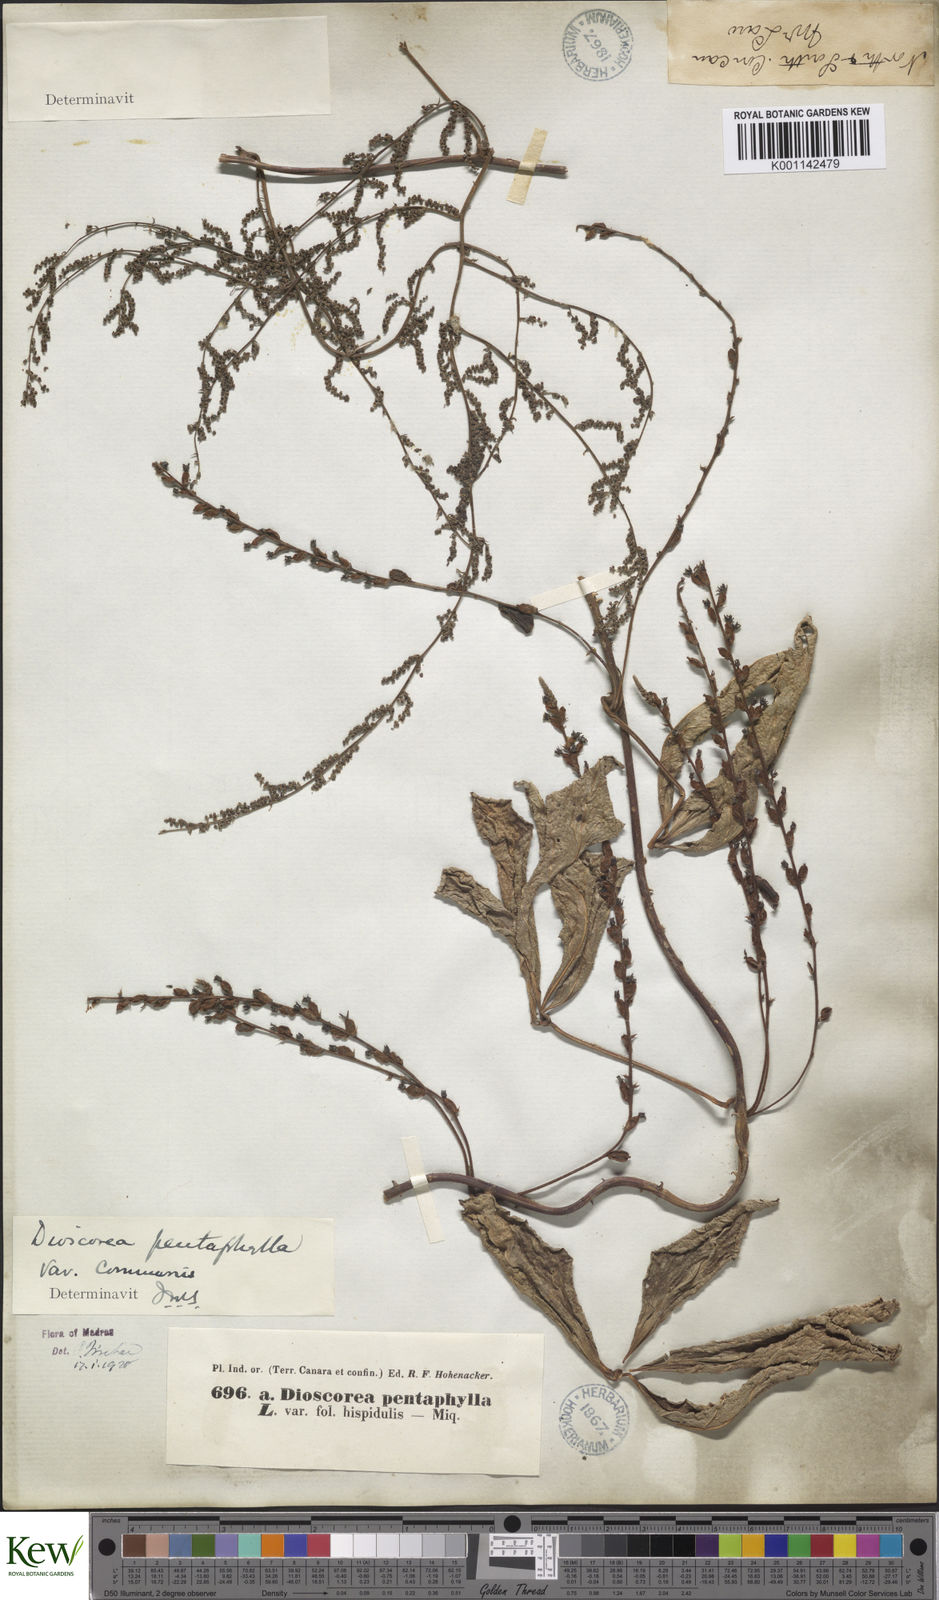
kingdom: Plantae
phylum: Tracheophyta
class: Liliopsida
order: Dioscoreales
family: Dioscoreaceae
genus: Dioscorea
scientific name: Dioscorea pentaphylla
